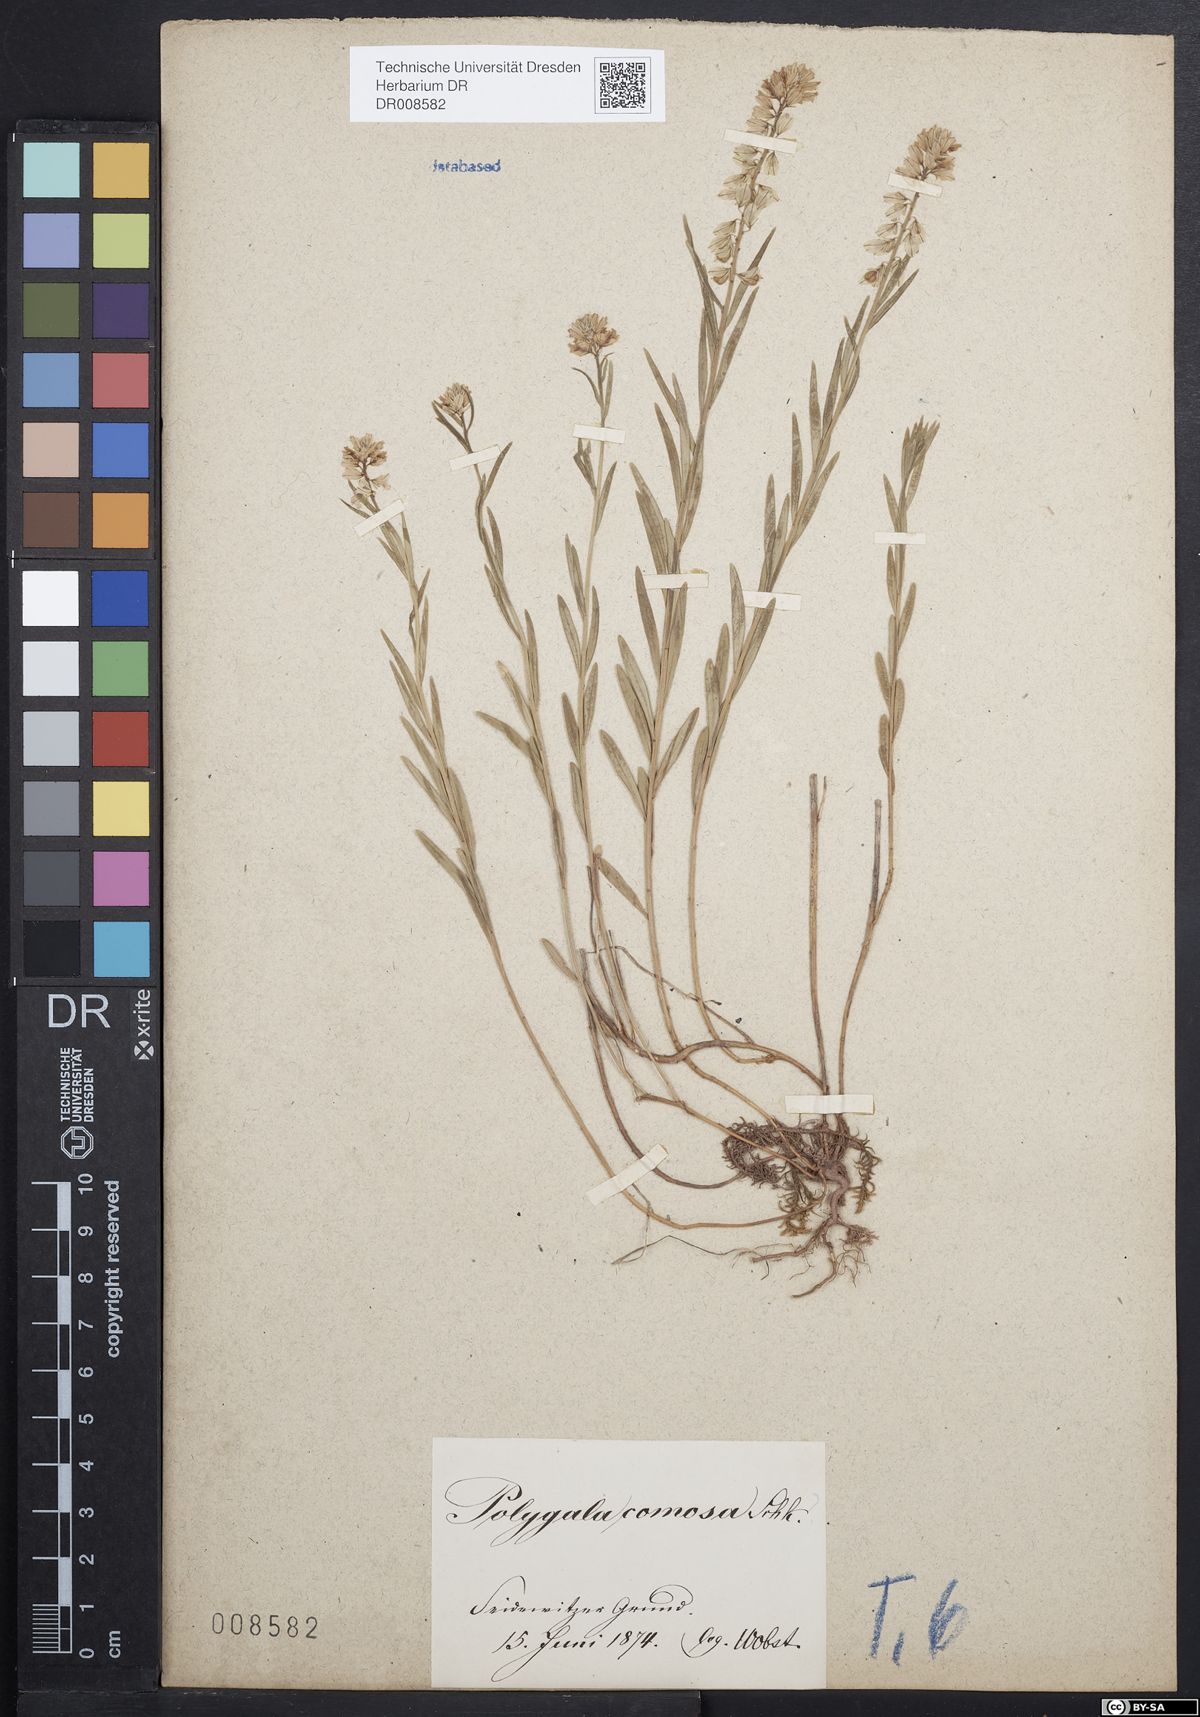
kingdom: Plantae
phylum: Tracheophyta
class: Magnoliopsida
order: Fabales
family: Polygalaceae
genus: Polygala
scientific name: Polygala comosa
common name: Tufted milkwort
